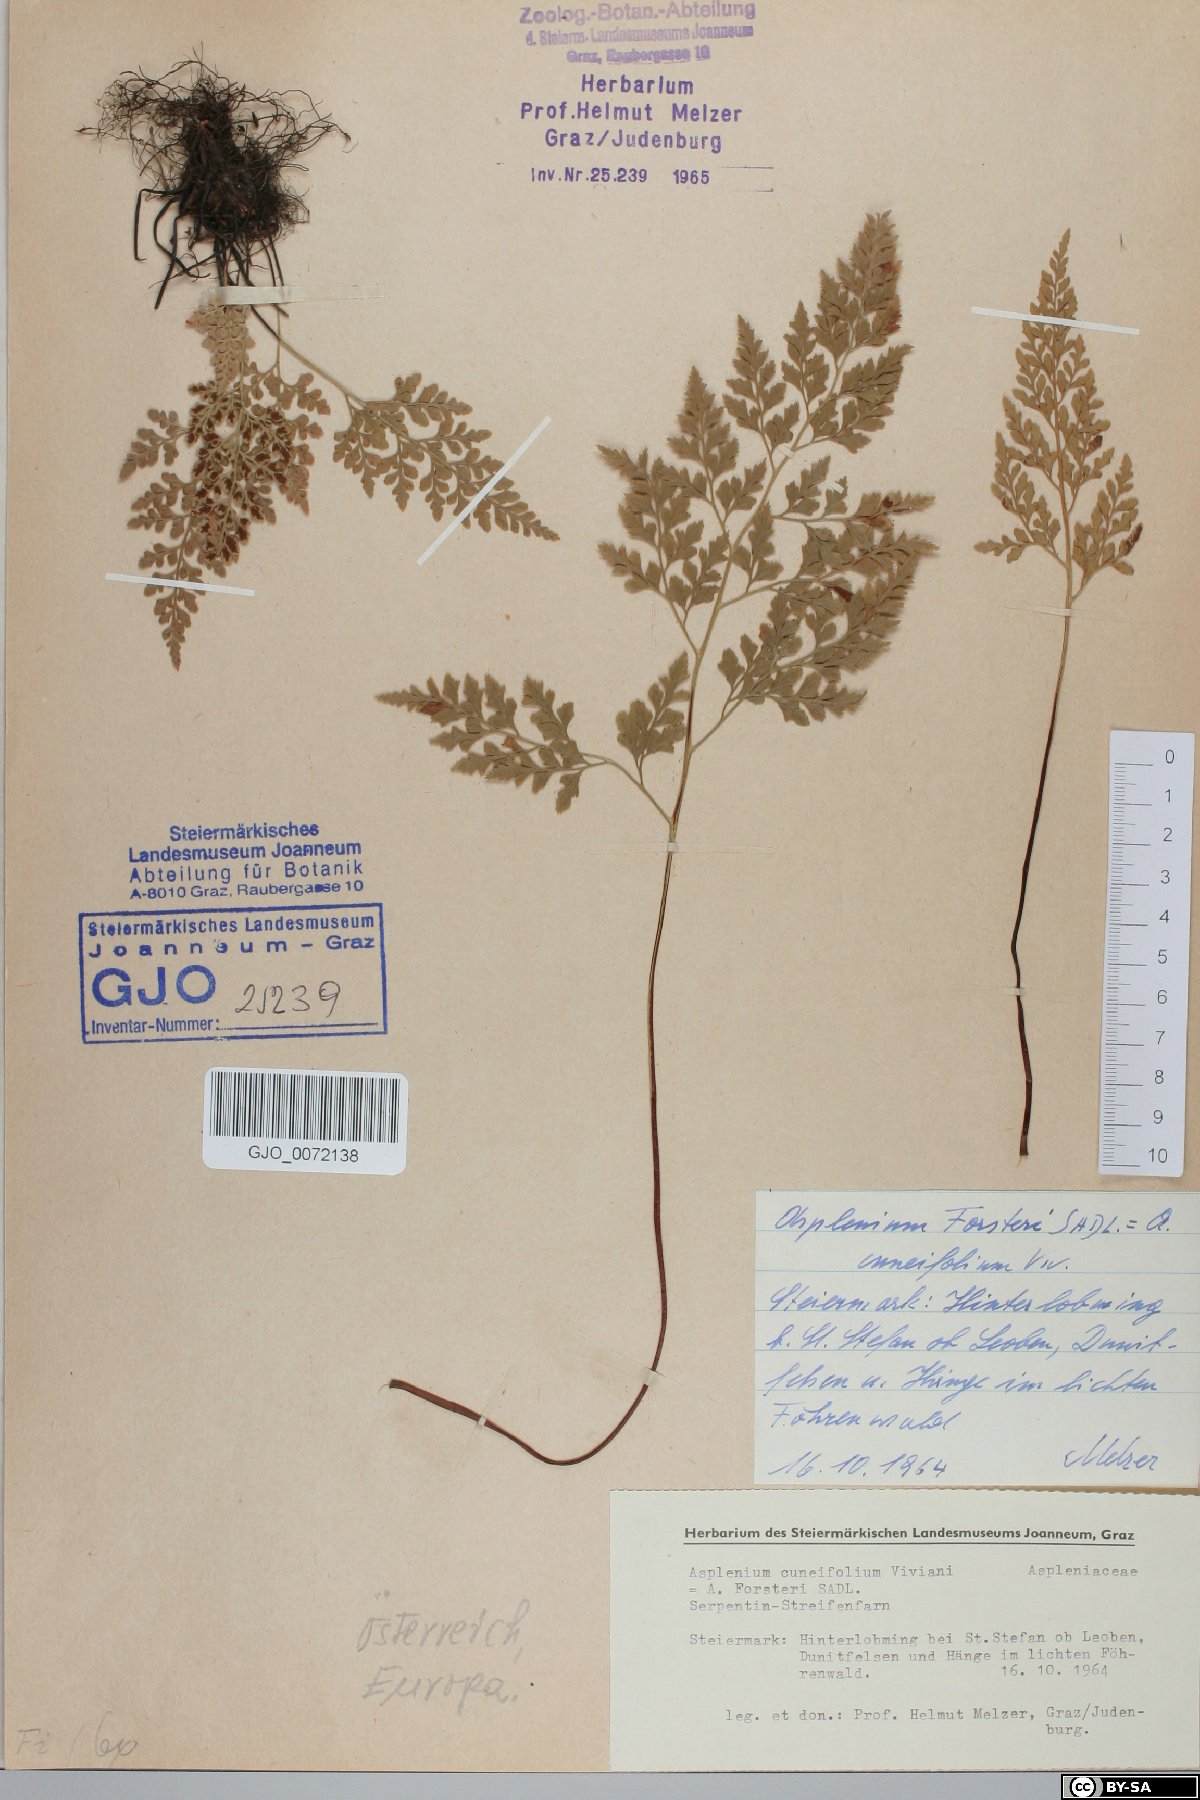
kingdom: Plantae
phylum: Tracheophyta
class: Polypodiopsida
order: Polypodiales
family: Aspleniaceae
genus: Asplenium
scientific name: Asplenium cuneifolium
